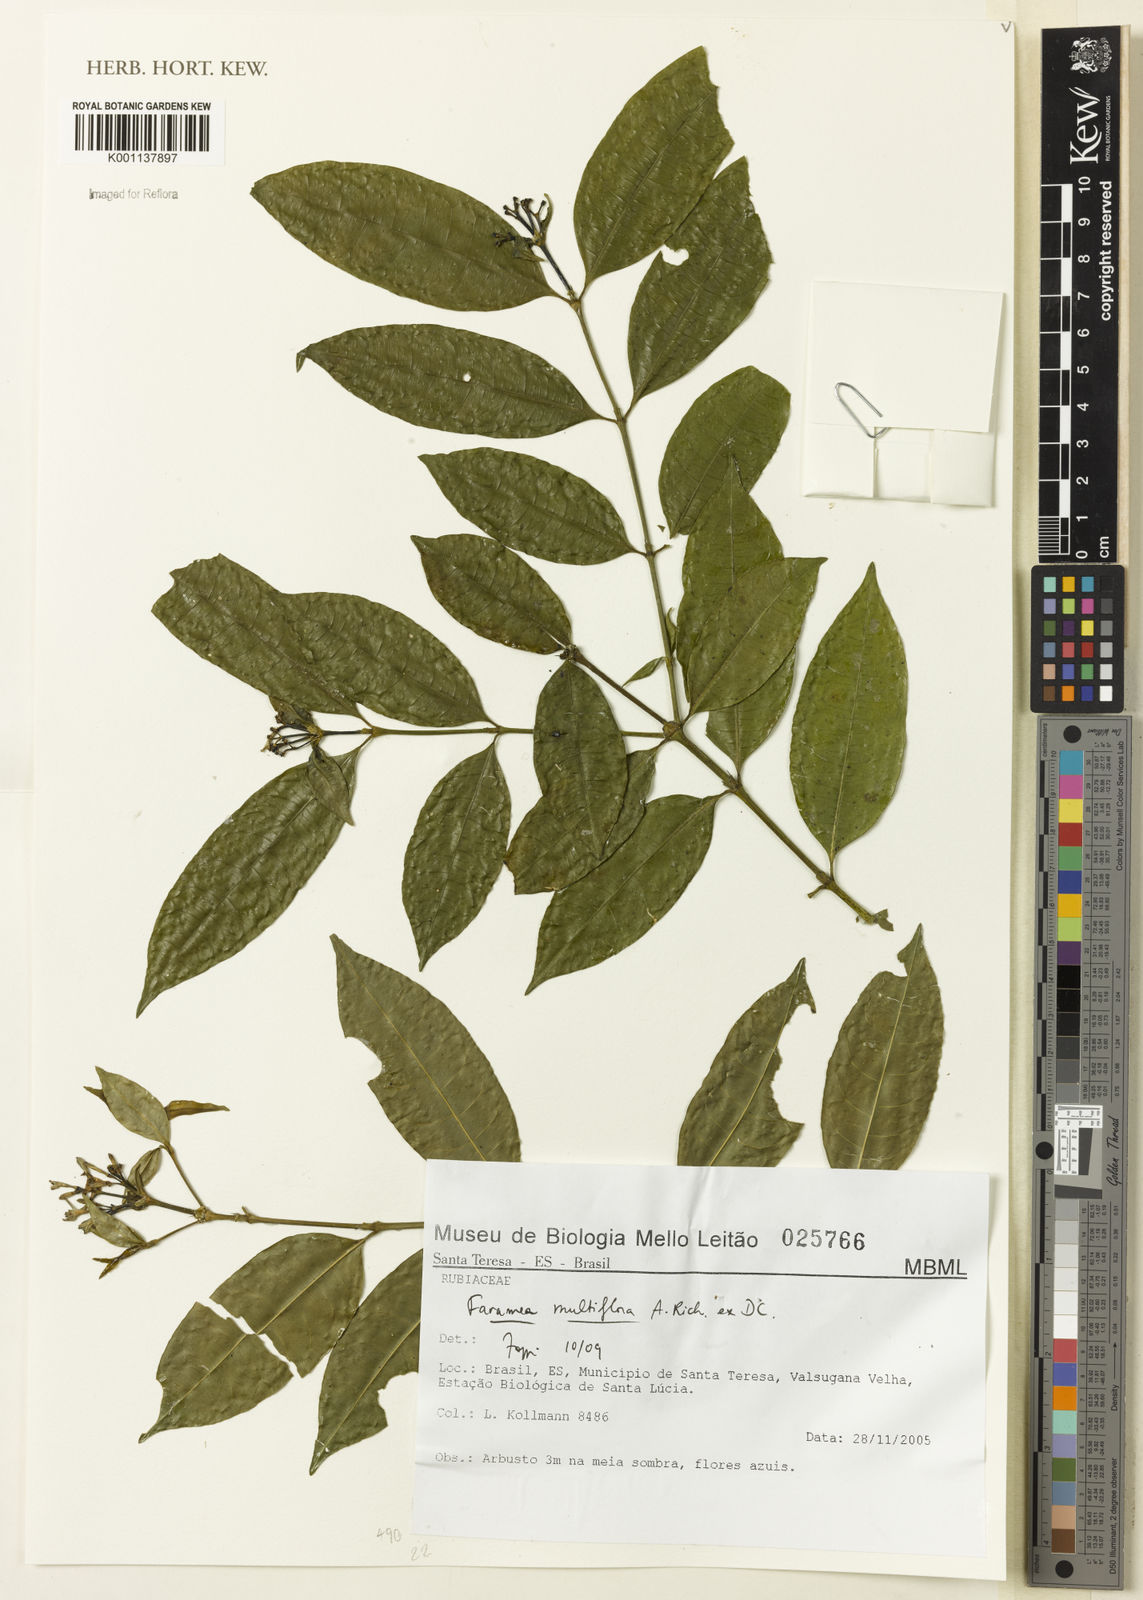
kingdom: Plantae
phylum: Tracheophyta
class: Magnoliopsida
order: Gentianales
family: Rubiaceae
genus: Faramea
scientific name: Faramea multiflora
